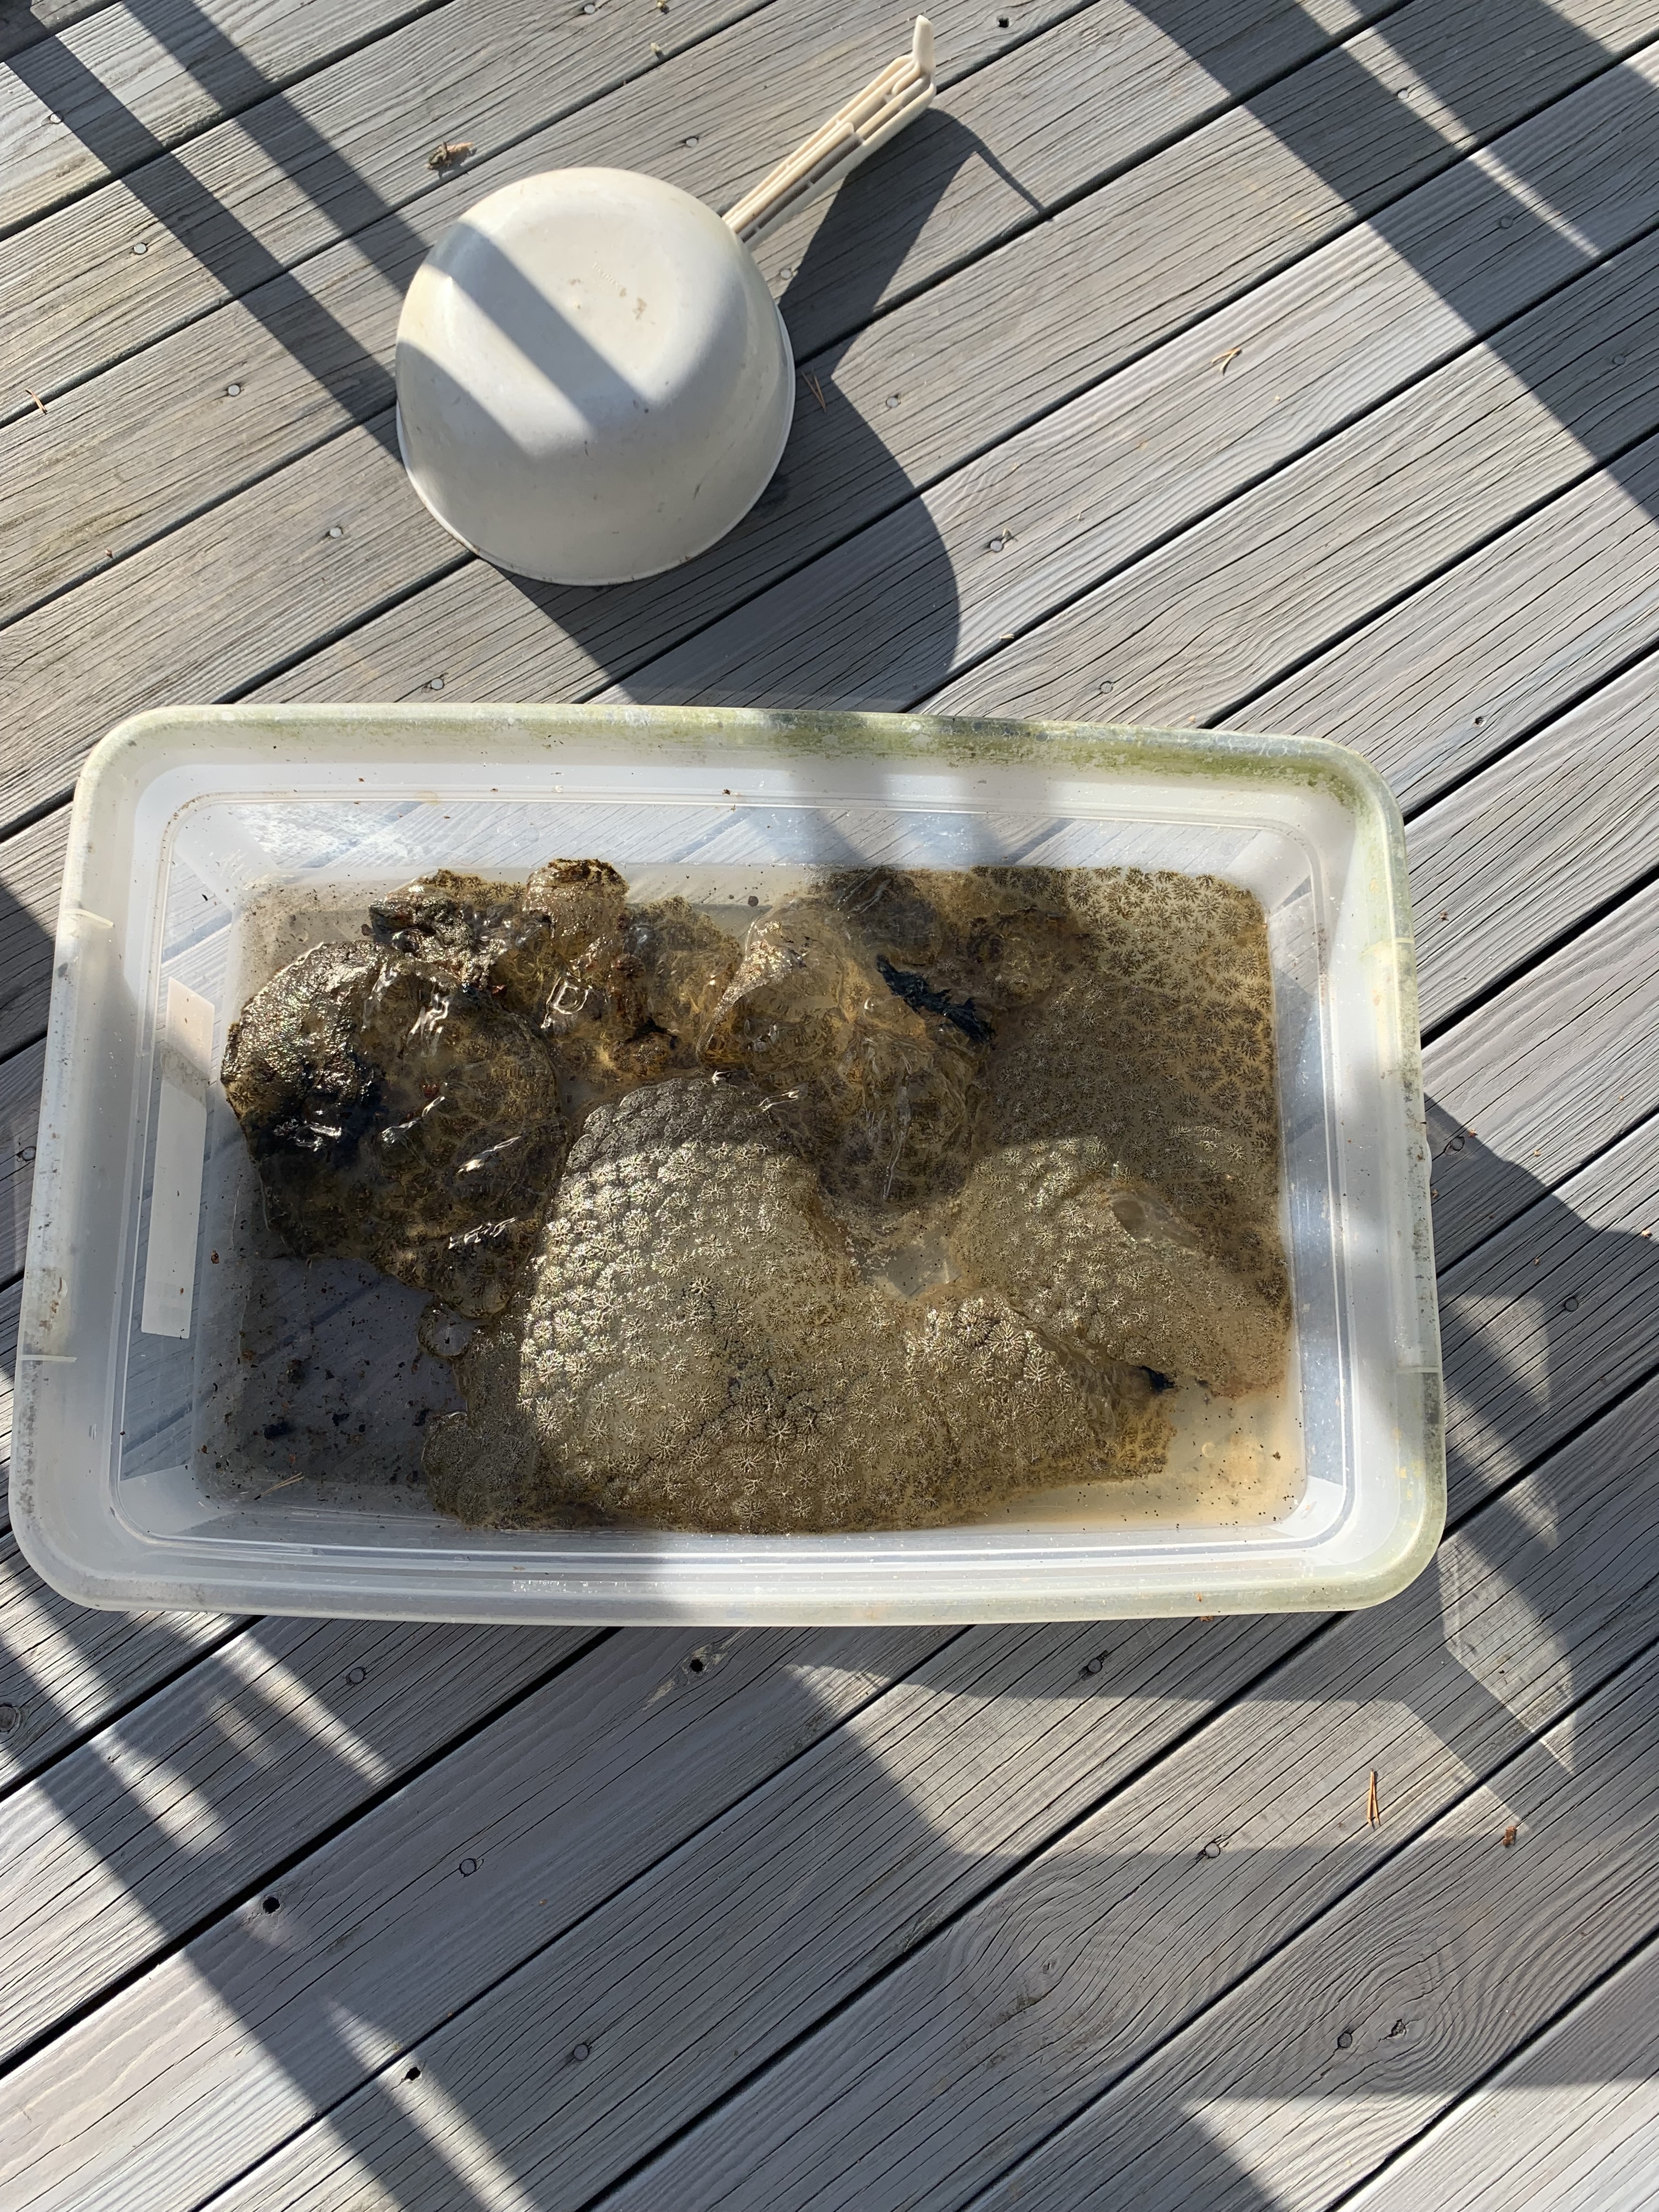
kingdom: Animalia
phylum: Bryozoa
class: Phylactolaemata
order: Plumatellida
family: Pectinatellidae
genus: Pectinatella
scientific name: Pectinatella magnifica
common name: Magnificent bryozoan
